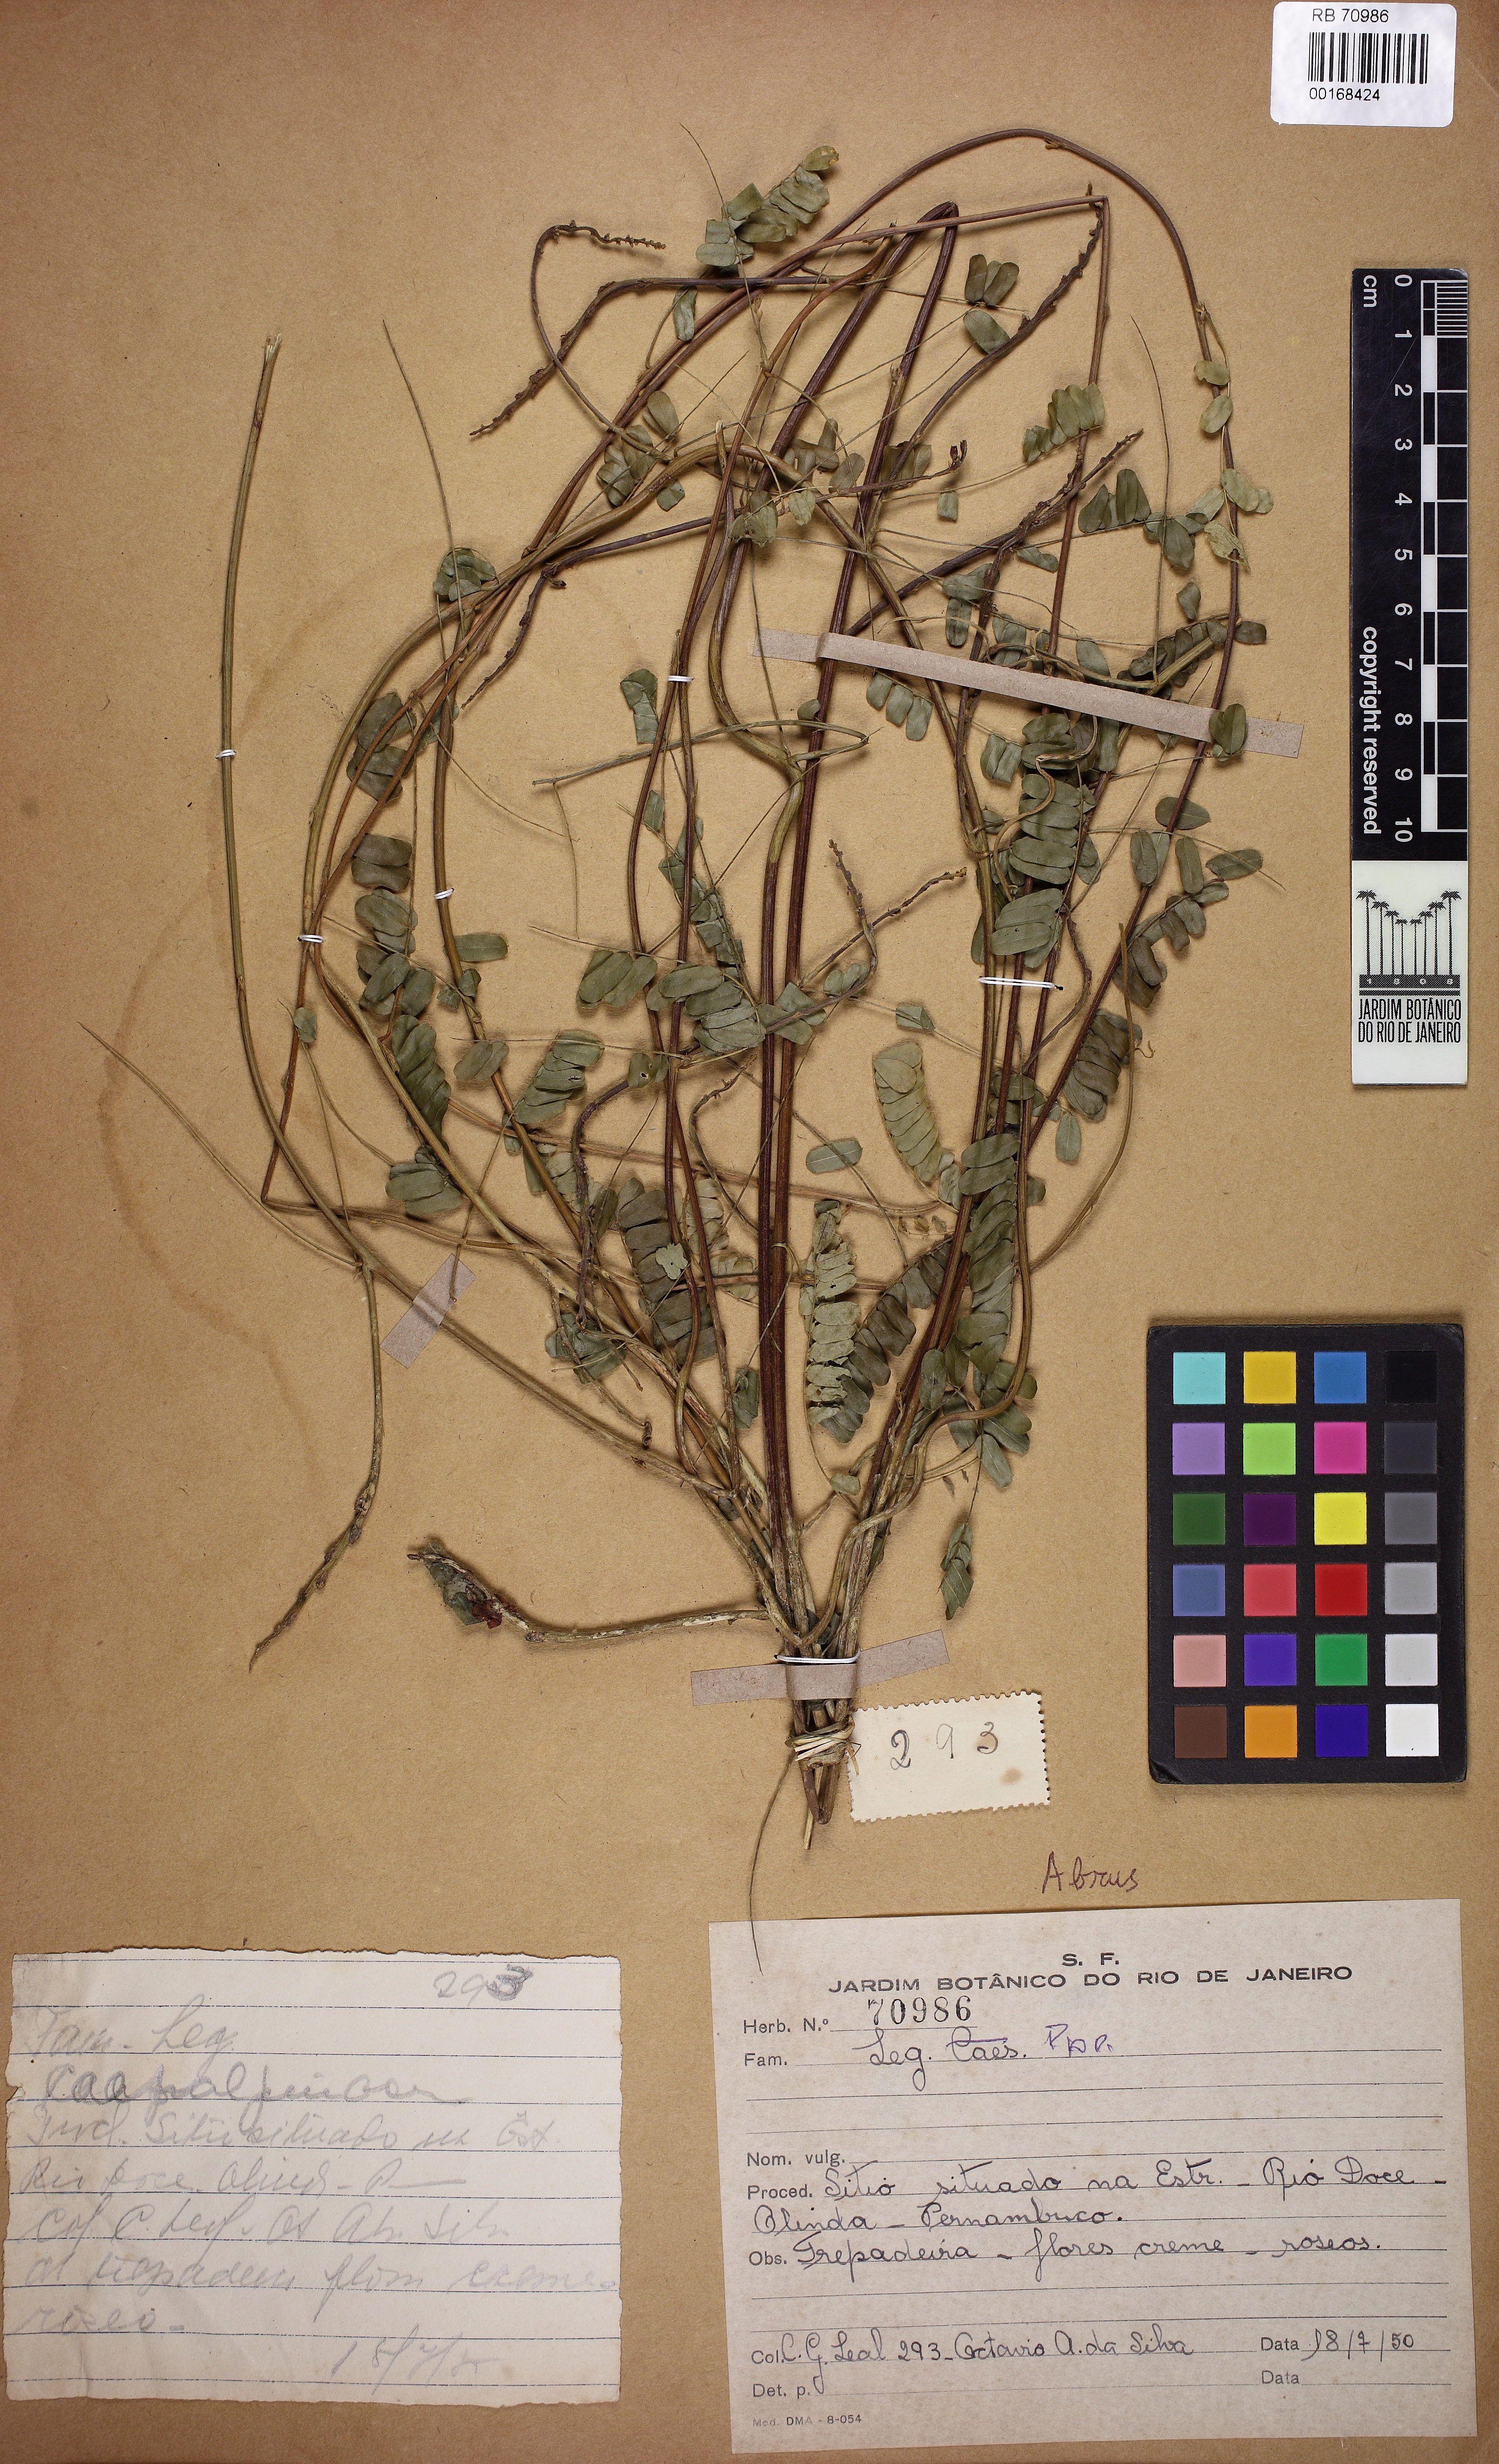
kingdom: Plantae
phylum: Tracheophyta
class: Magnoliopsida
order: Fabales
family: Fabaceae
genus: Abrus
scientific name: Abrus
